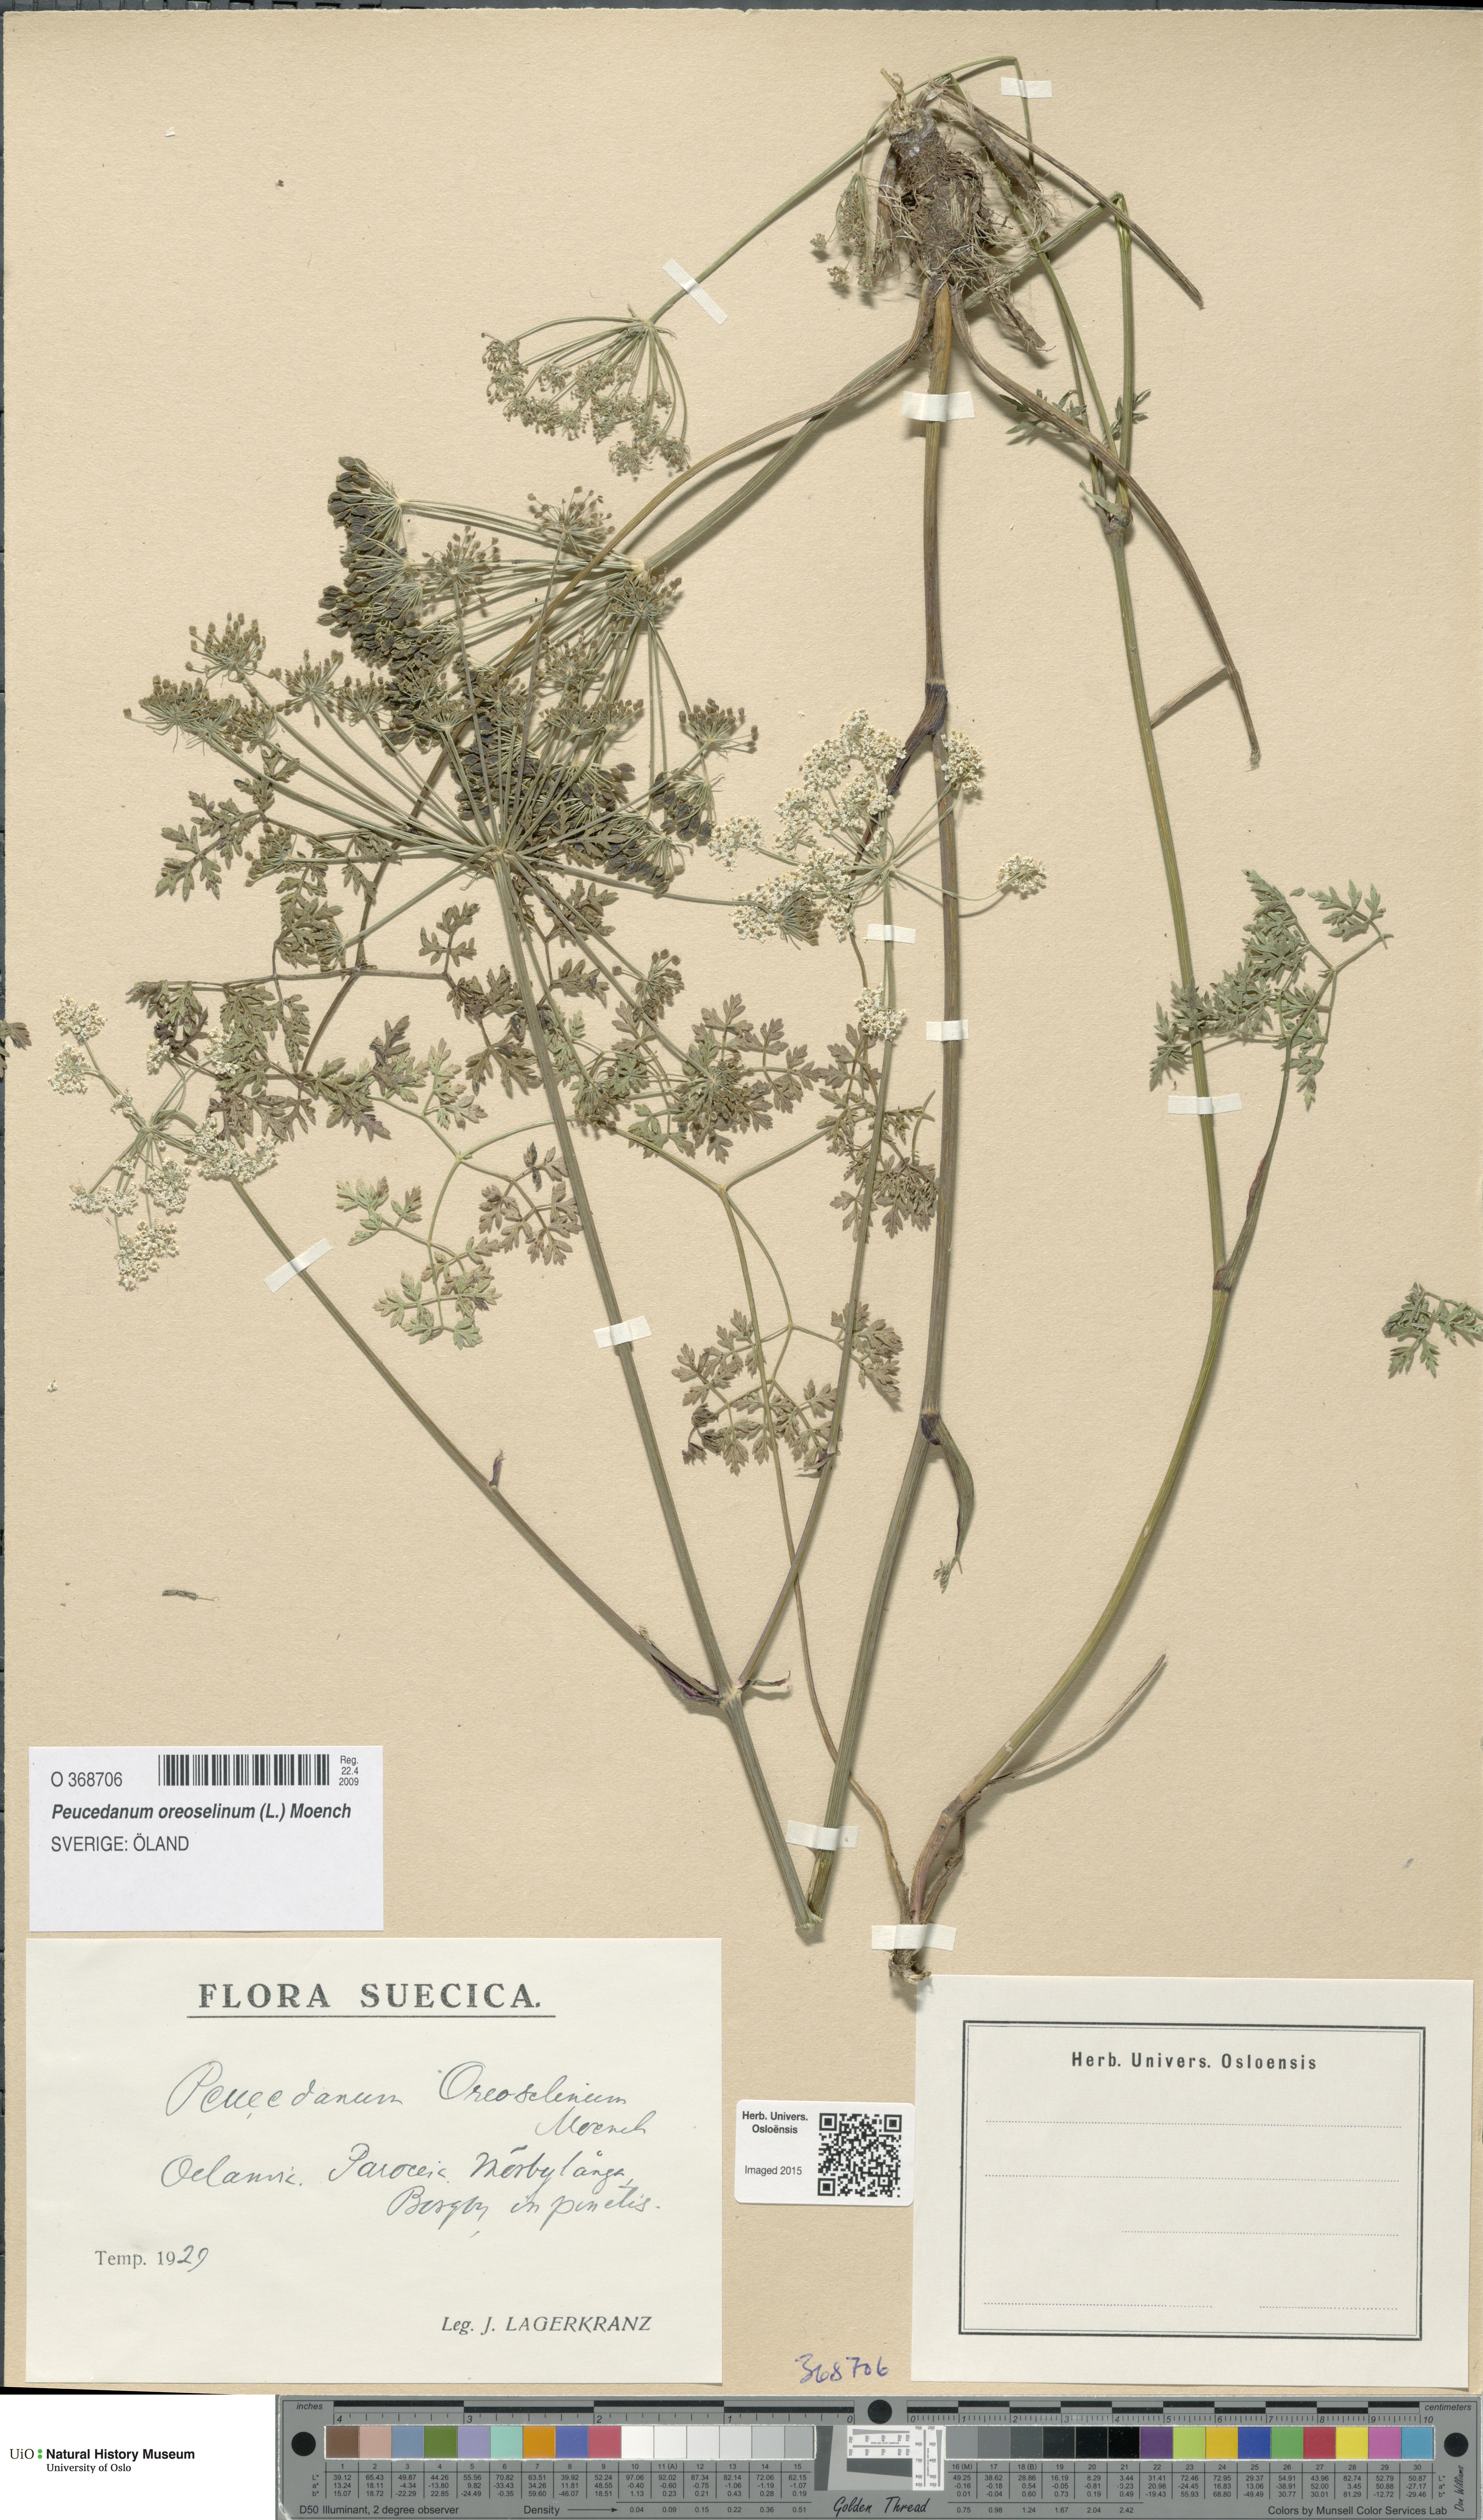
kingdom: Plantae
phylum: Tracheophyta
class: Magnoliopsida
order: Apiales
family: Apiaceae
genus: Oreoselinum
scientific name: Oreoselinum nigrum
